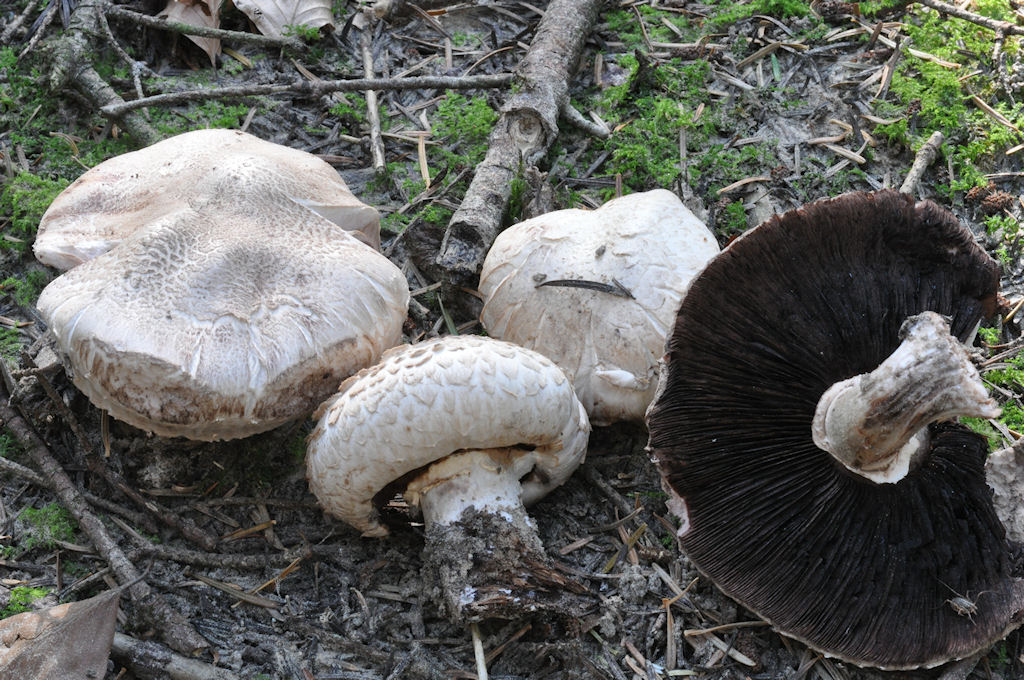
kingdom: Fungi
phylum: Basidiomycota
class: Agaricomycetes
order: Agaricales
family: Agaricaceae
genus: Agaricus
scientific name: Agaricus subfloccosus
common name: randskællet champignon
